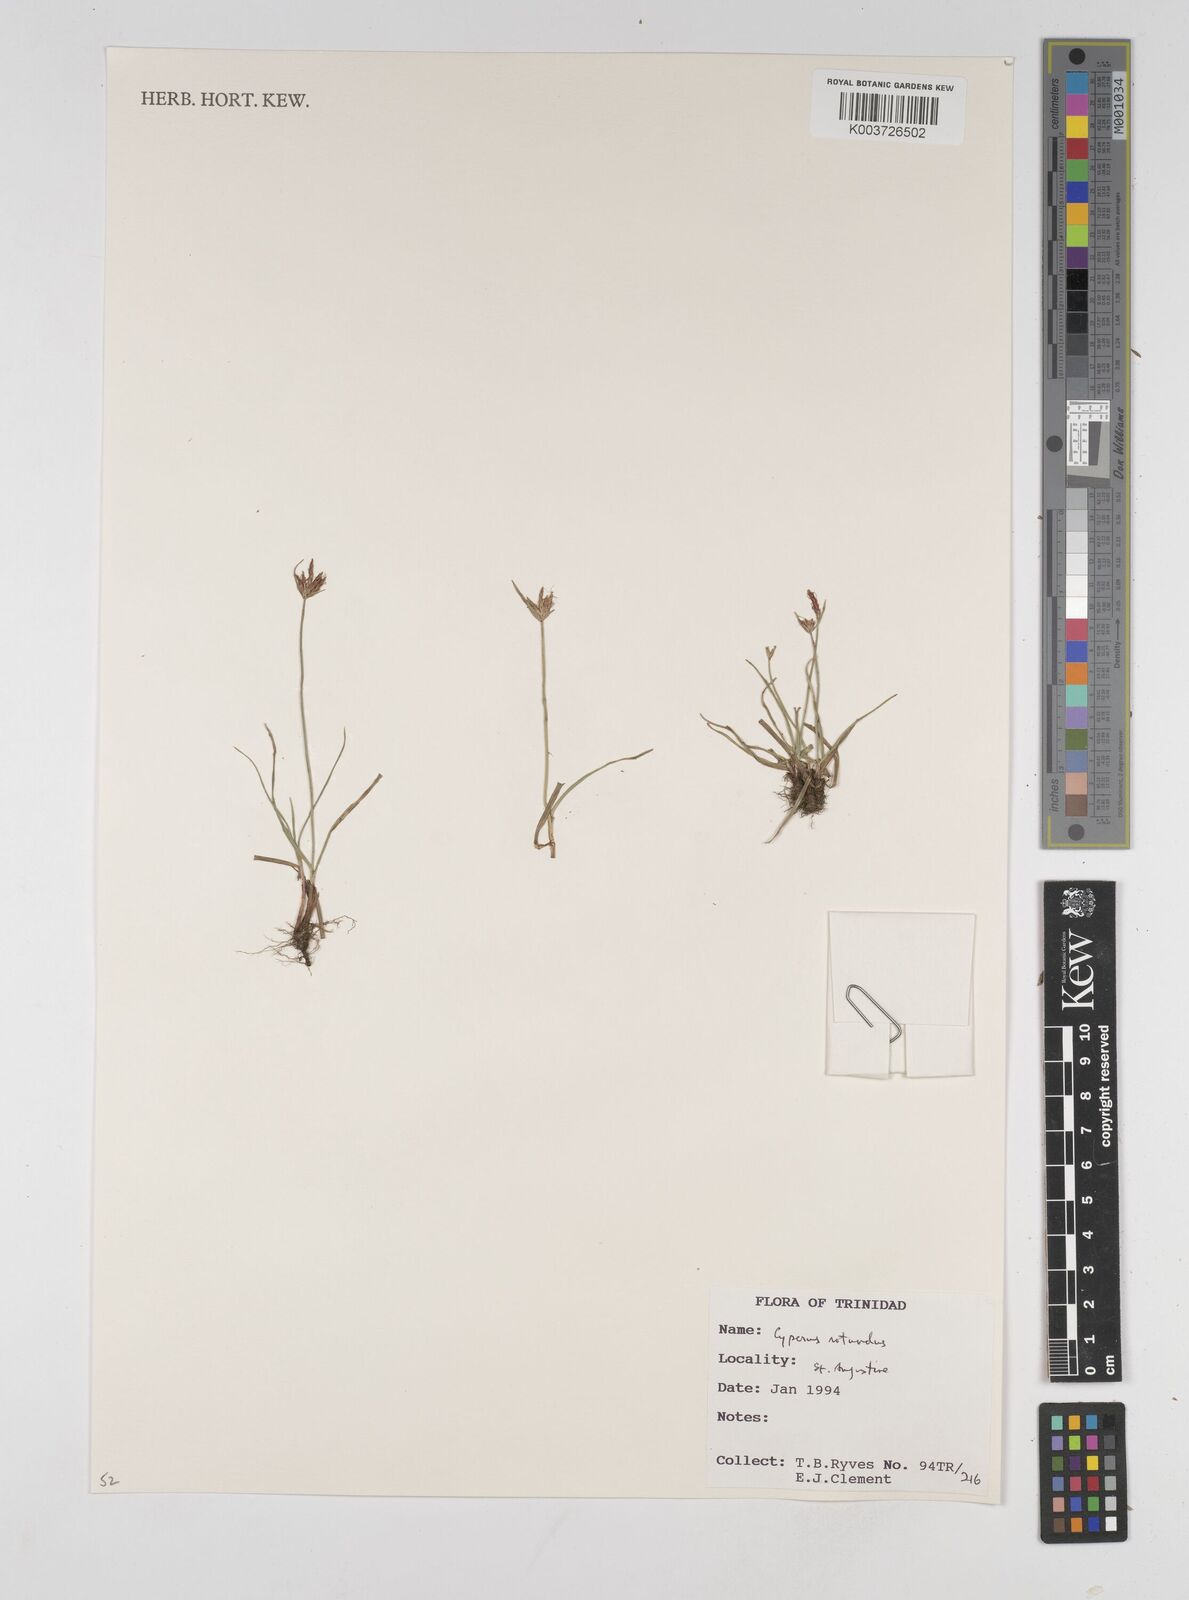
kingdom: Plantae
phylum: Tracheophyta
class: Liliopsida
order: Poales
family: Cyperaceae
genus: Cyperus
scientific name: Cyperus rotundus
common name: Nutgrass
